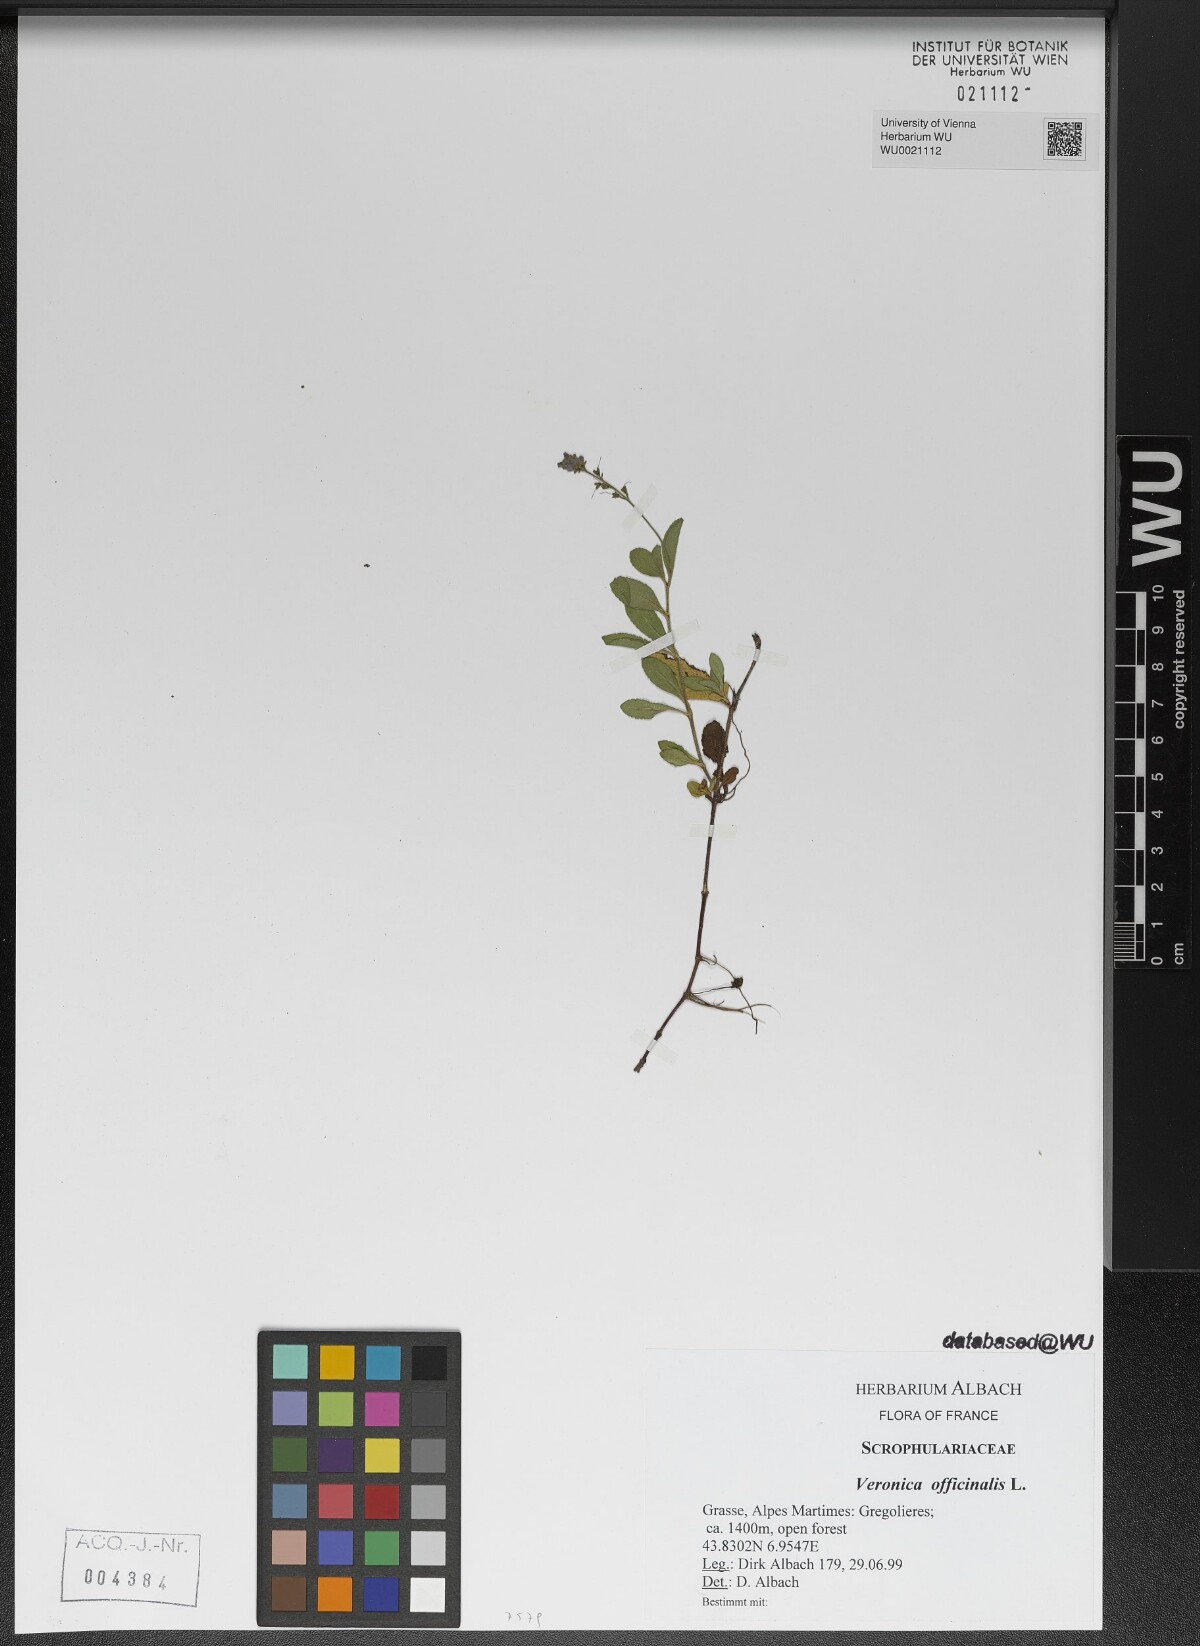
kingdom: Plantae
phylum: Tracheophyta
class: Magnoliopsida
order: Lamiales
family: Plantaginaceae
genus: Veronica
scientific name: Veronica officinalis
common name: Common speedwell
